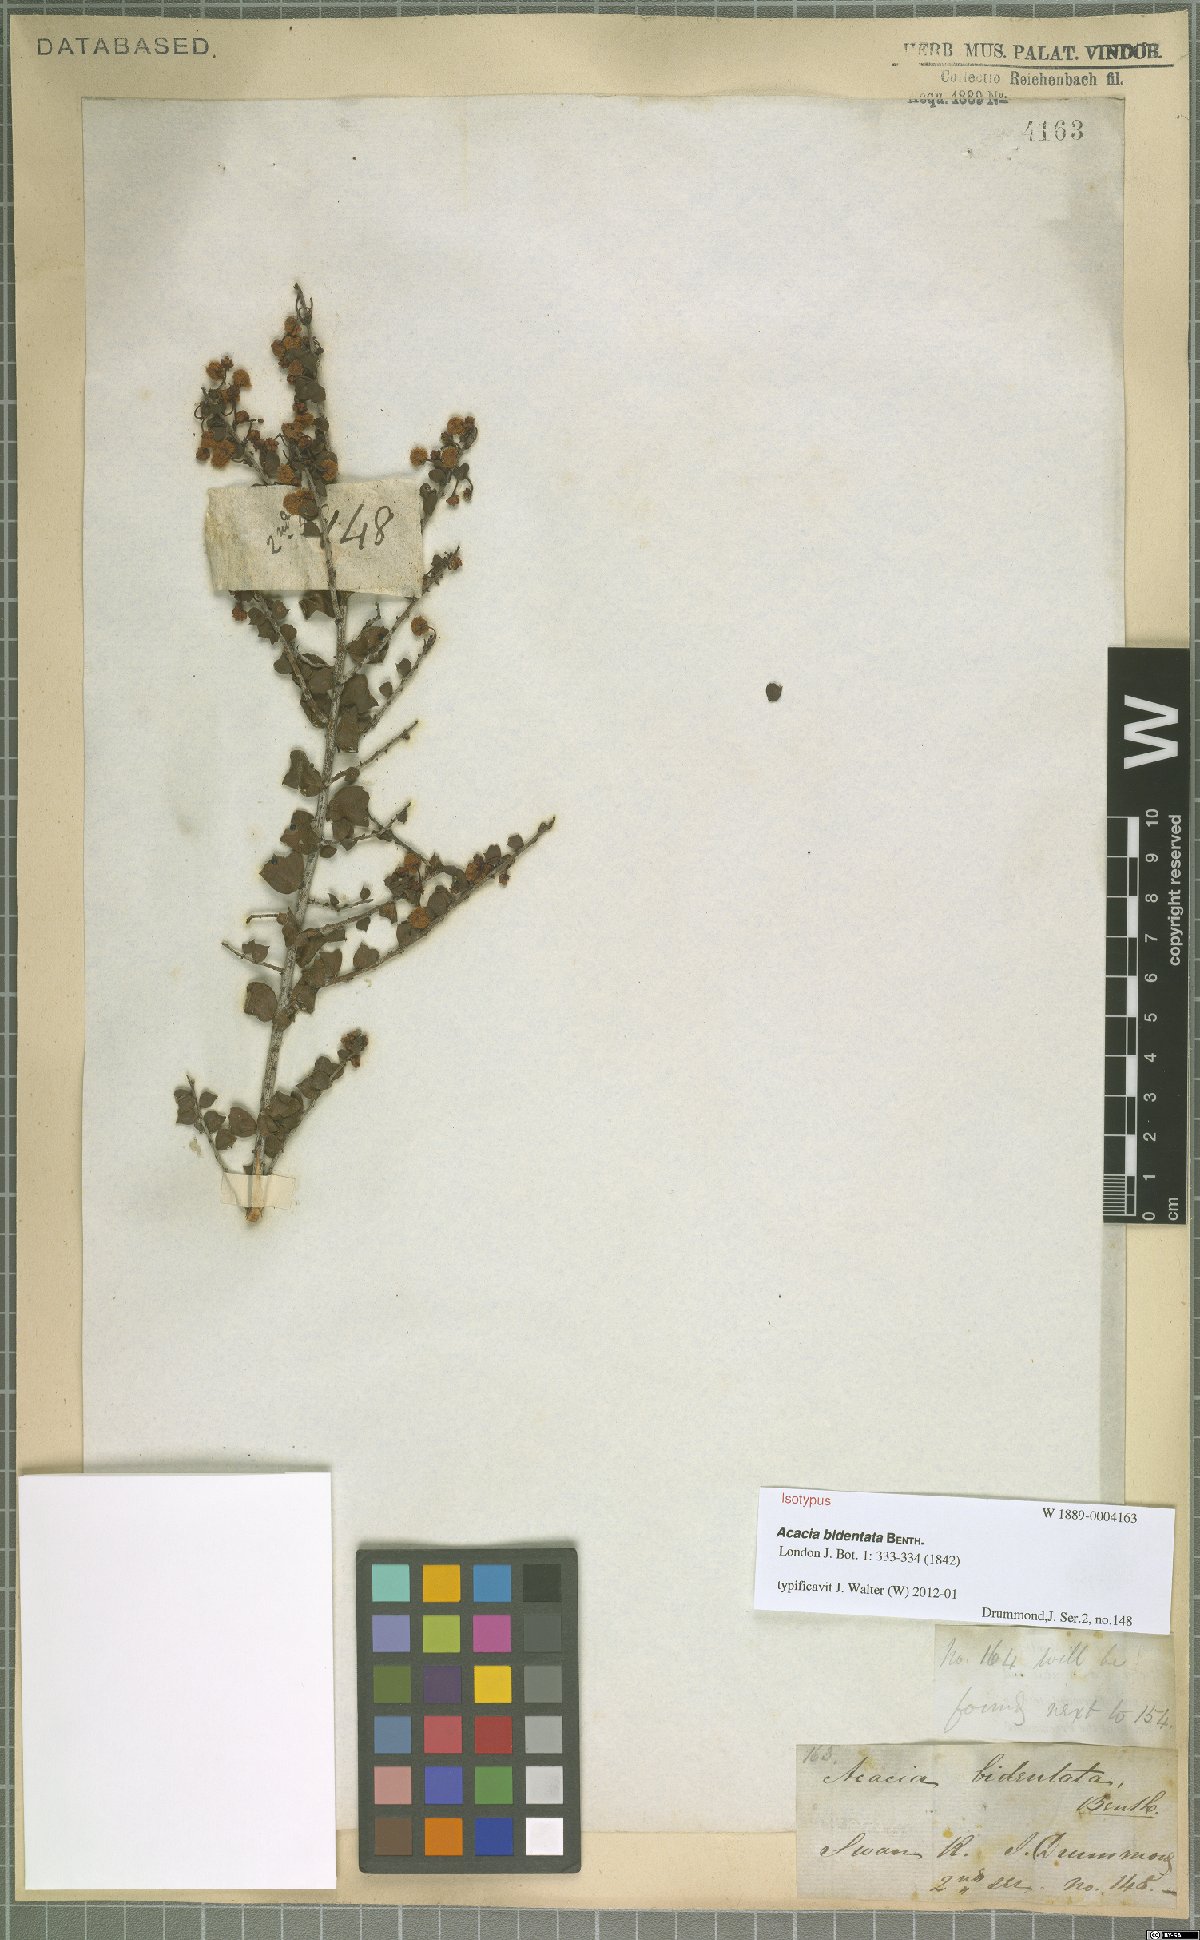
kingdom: Plantae
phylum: Tracheophyta
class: Magnoliopsida
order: Fabales
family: Fabaceae
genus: Acacia
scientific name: Acacia bidentata
